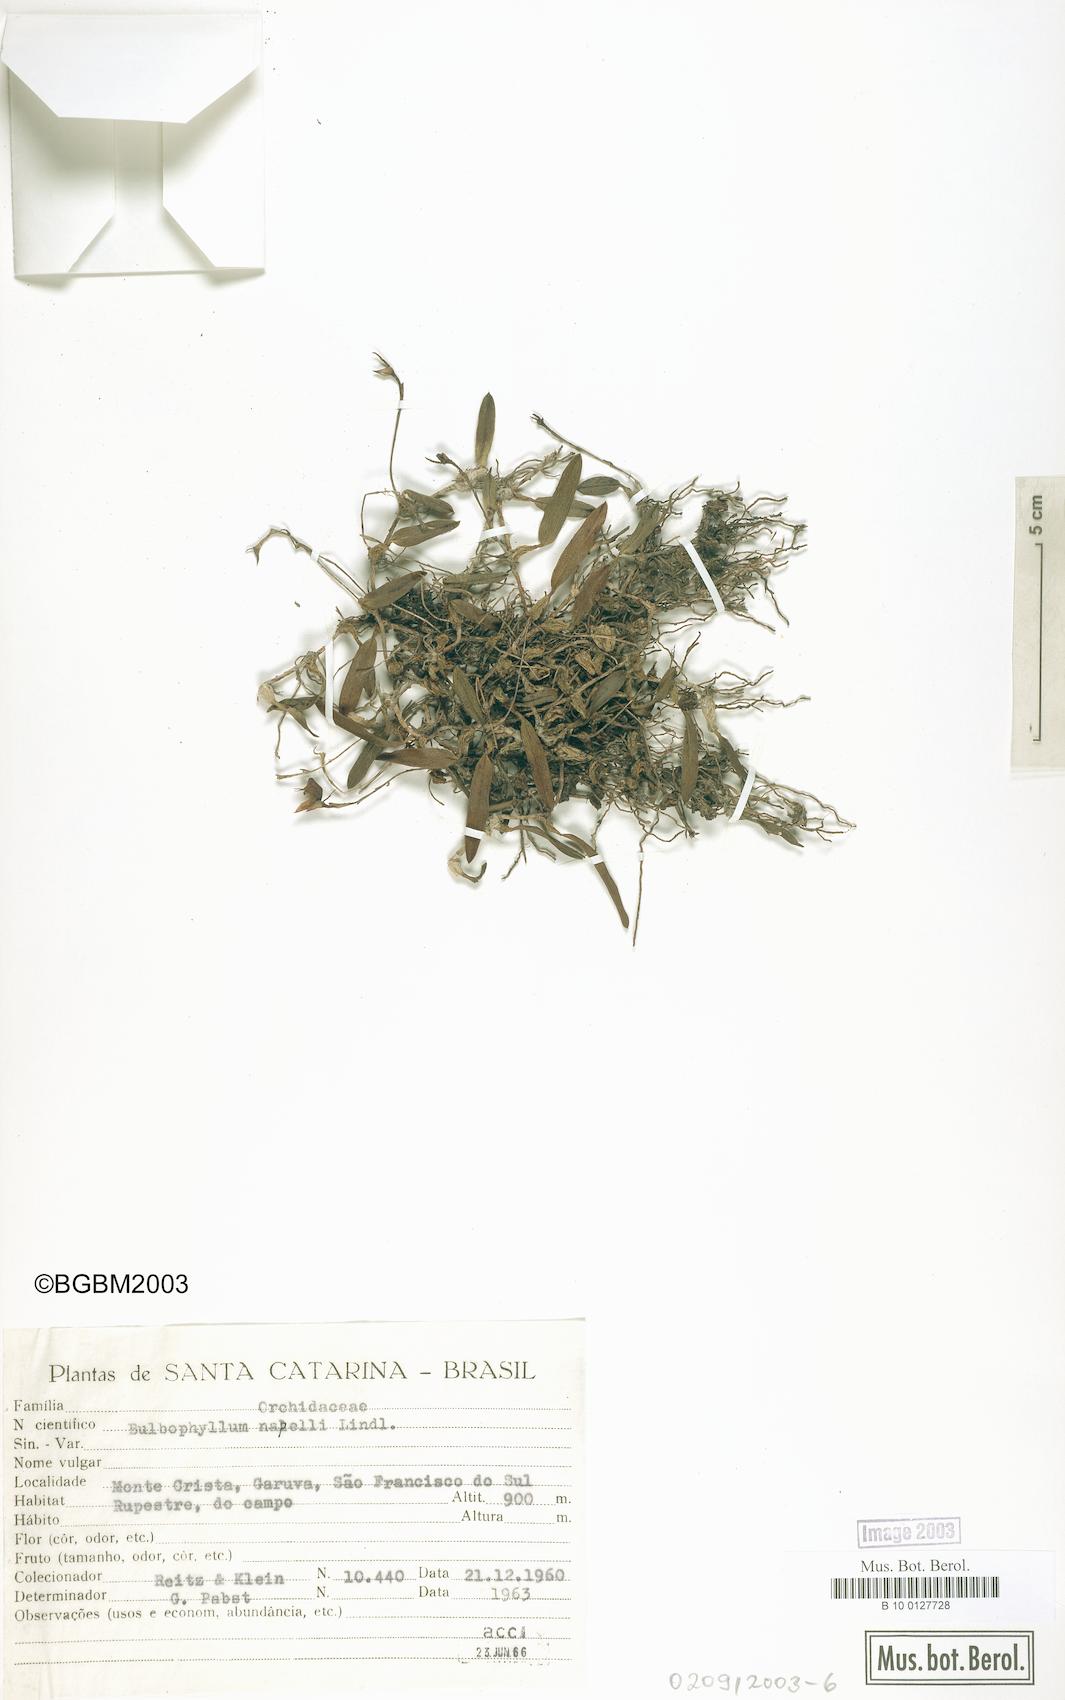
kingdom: Plantae
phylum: Tracheophyta
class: Liliopsida
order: Asparagales
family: Orchidaceae
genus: Bulbophyllum
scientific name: Bulbophyllum napellii
